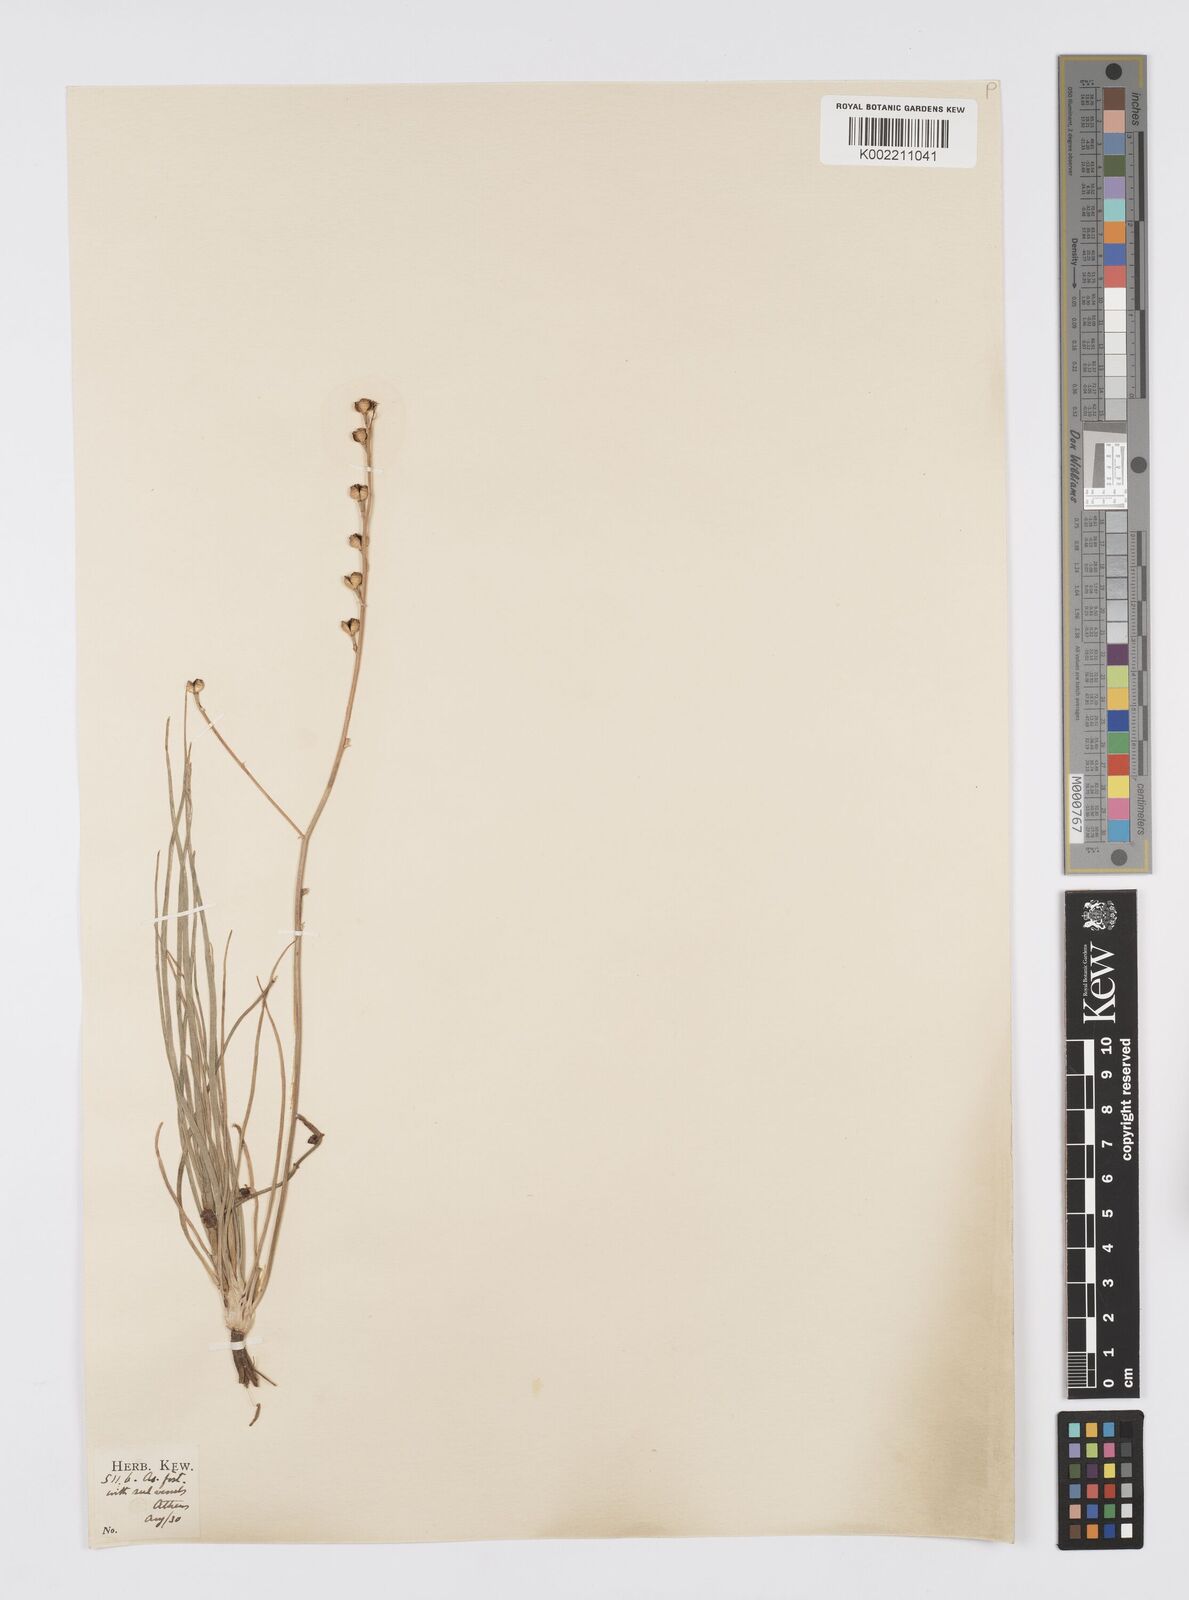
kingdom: Plantae
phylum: Tracheophyta
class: Liliopsida
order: Asparagales
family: Asphodelaceae
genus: Asphodelus
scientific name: Asphodelus fistulosus
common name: Onionweed
